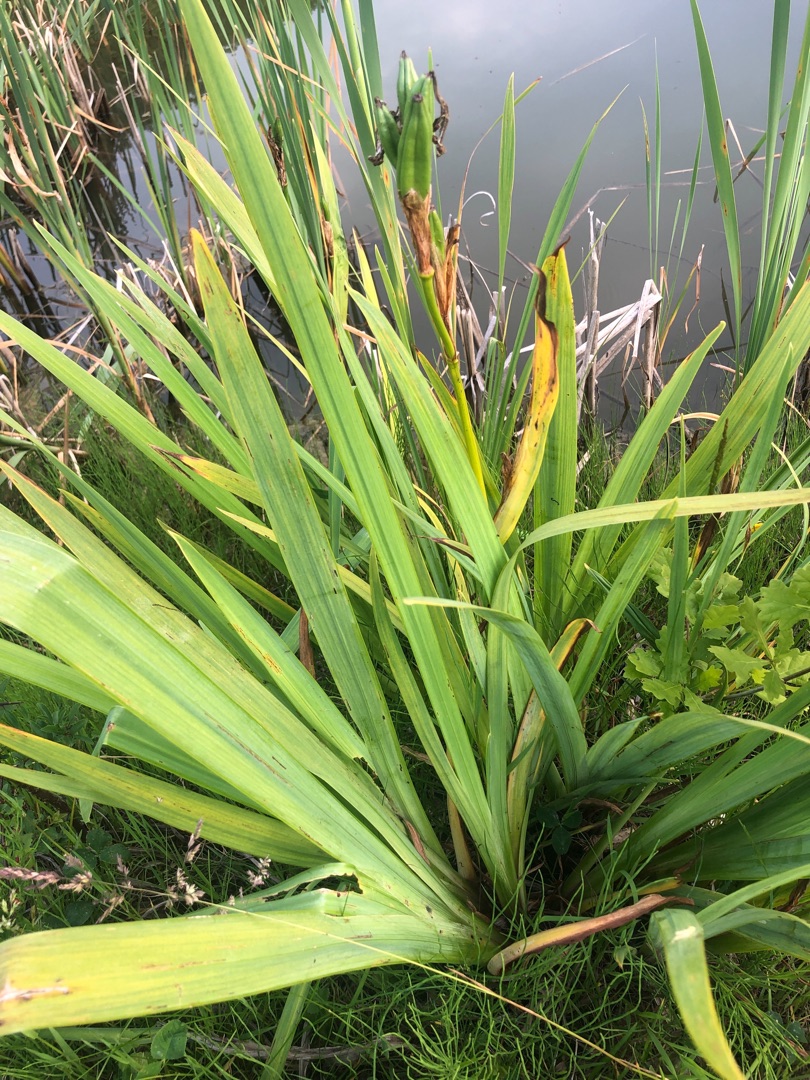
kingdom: Plantae
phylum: Tracheophyta
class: Liliopsida
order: Asparagales
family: Iridaceae
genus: Iris
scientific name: Iris pseudacorus
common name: Gul iris
